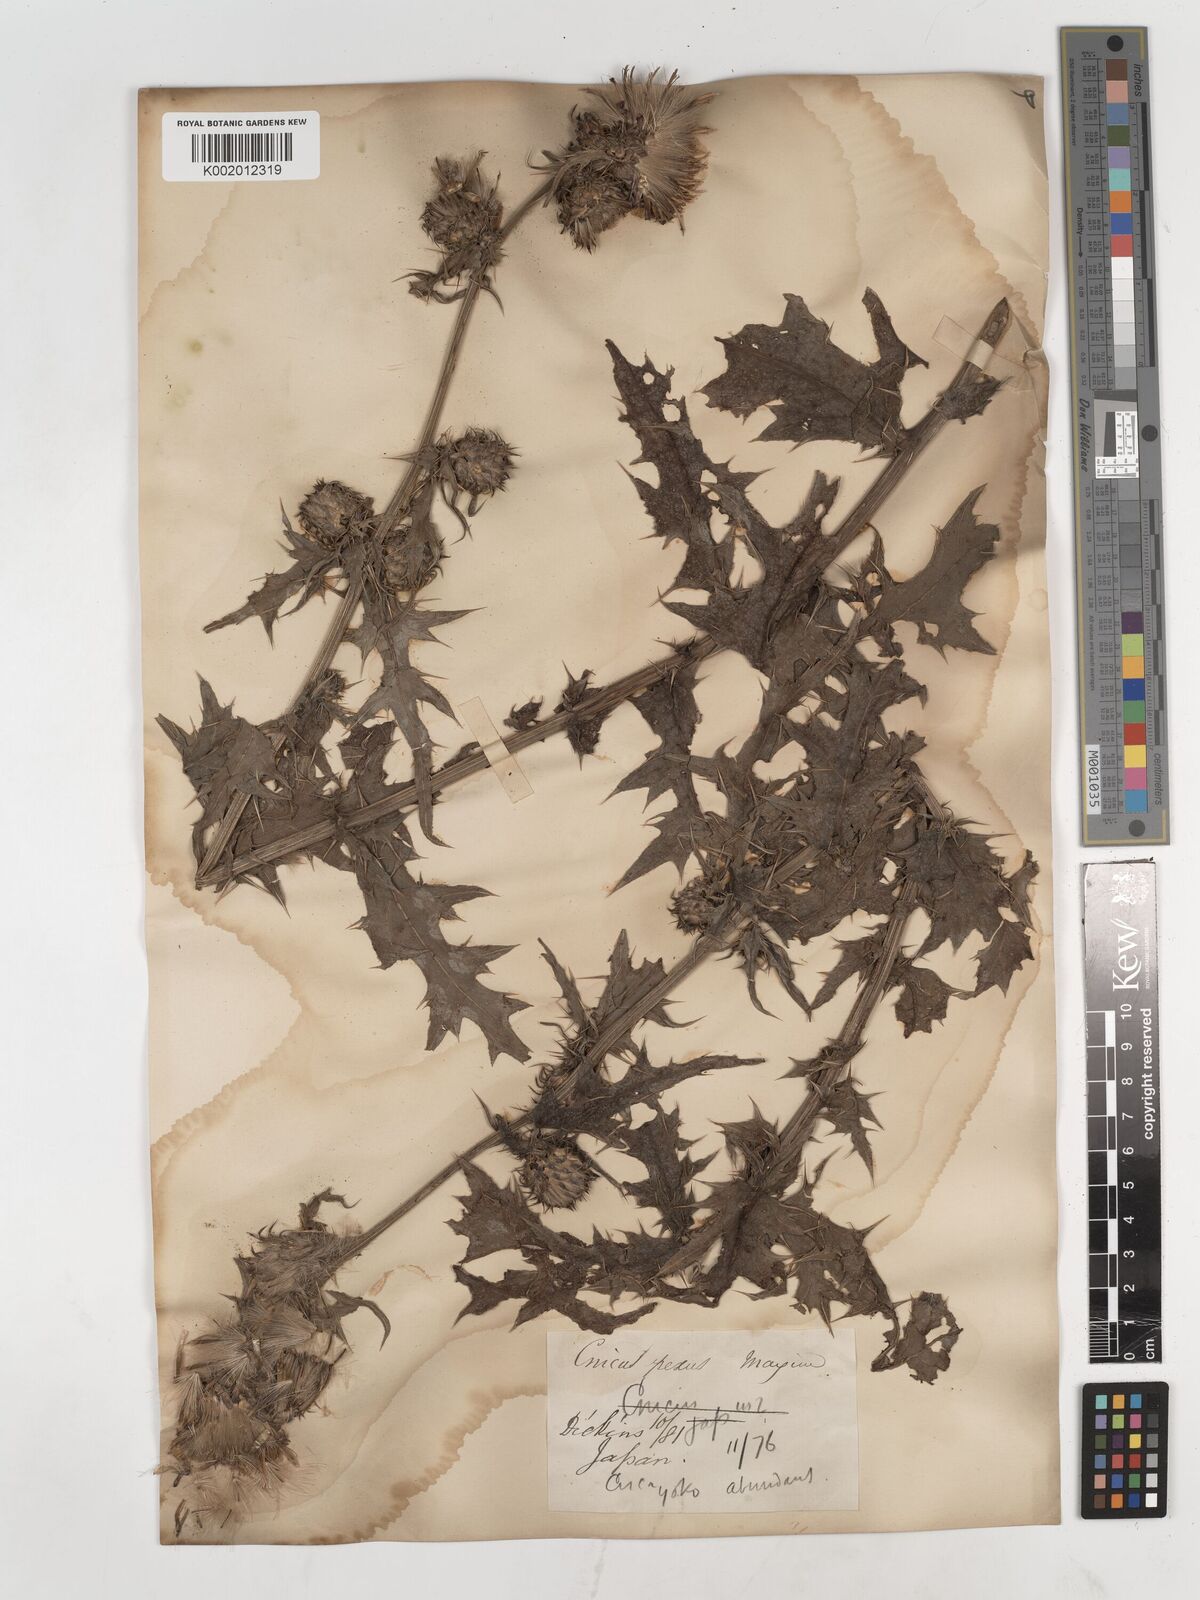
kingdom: Plantae
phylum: Tracheophyta
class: Magnoliopsida
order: Asterales
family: Asteraceae
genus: Cirsium
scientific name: Cirsium suffultum
